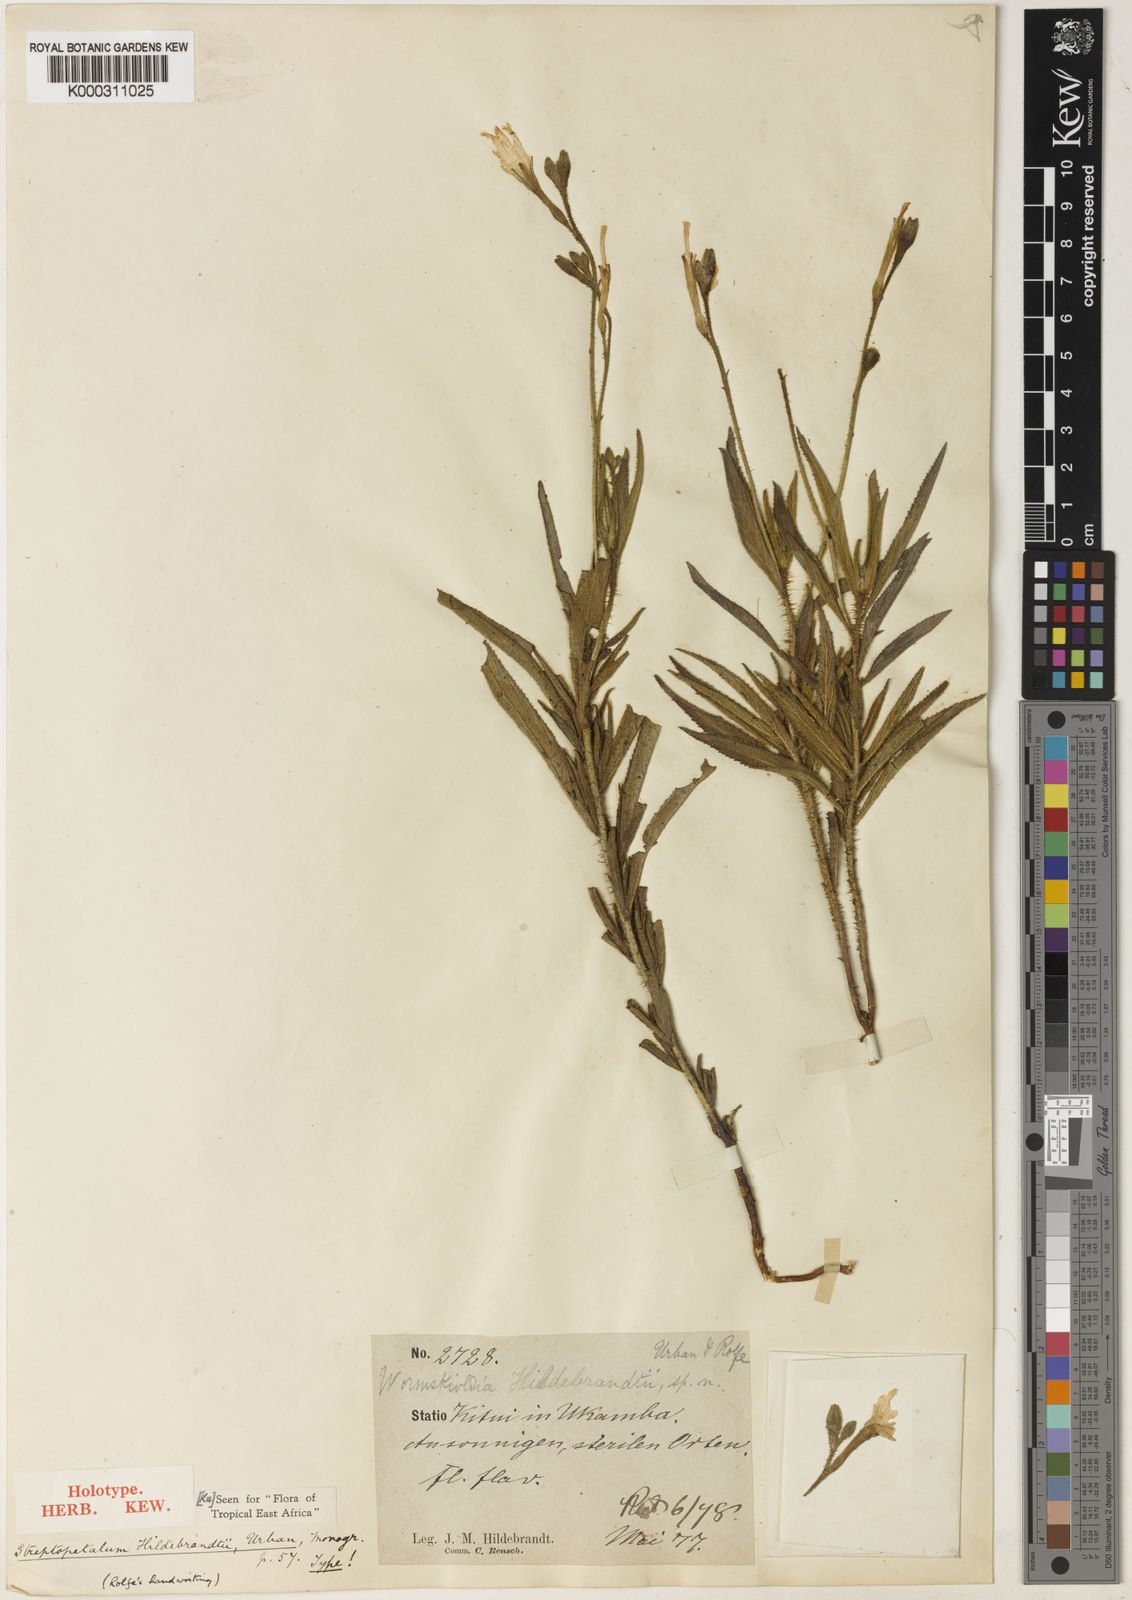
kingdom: Plantae
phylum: Tracheophyta
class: Magnoliopsida
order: Malpighiales
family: Turneraceae
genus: Streptopetalum
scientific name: Streptopetalum hildebrandtii
